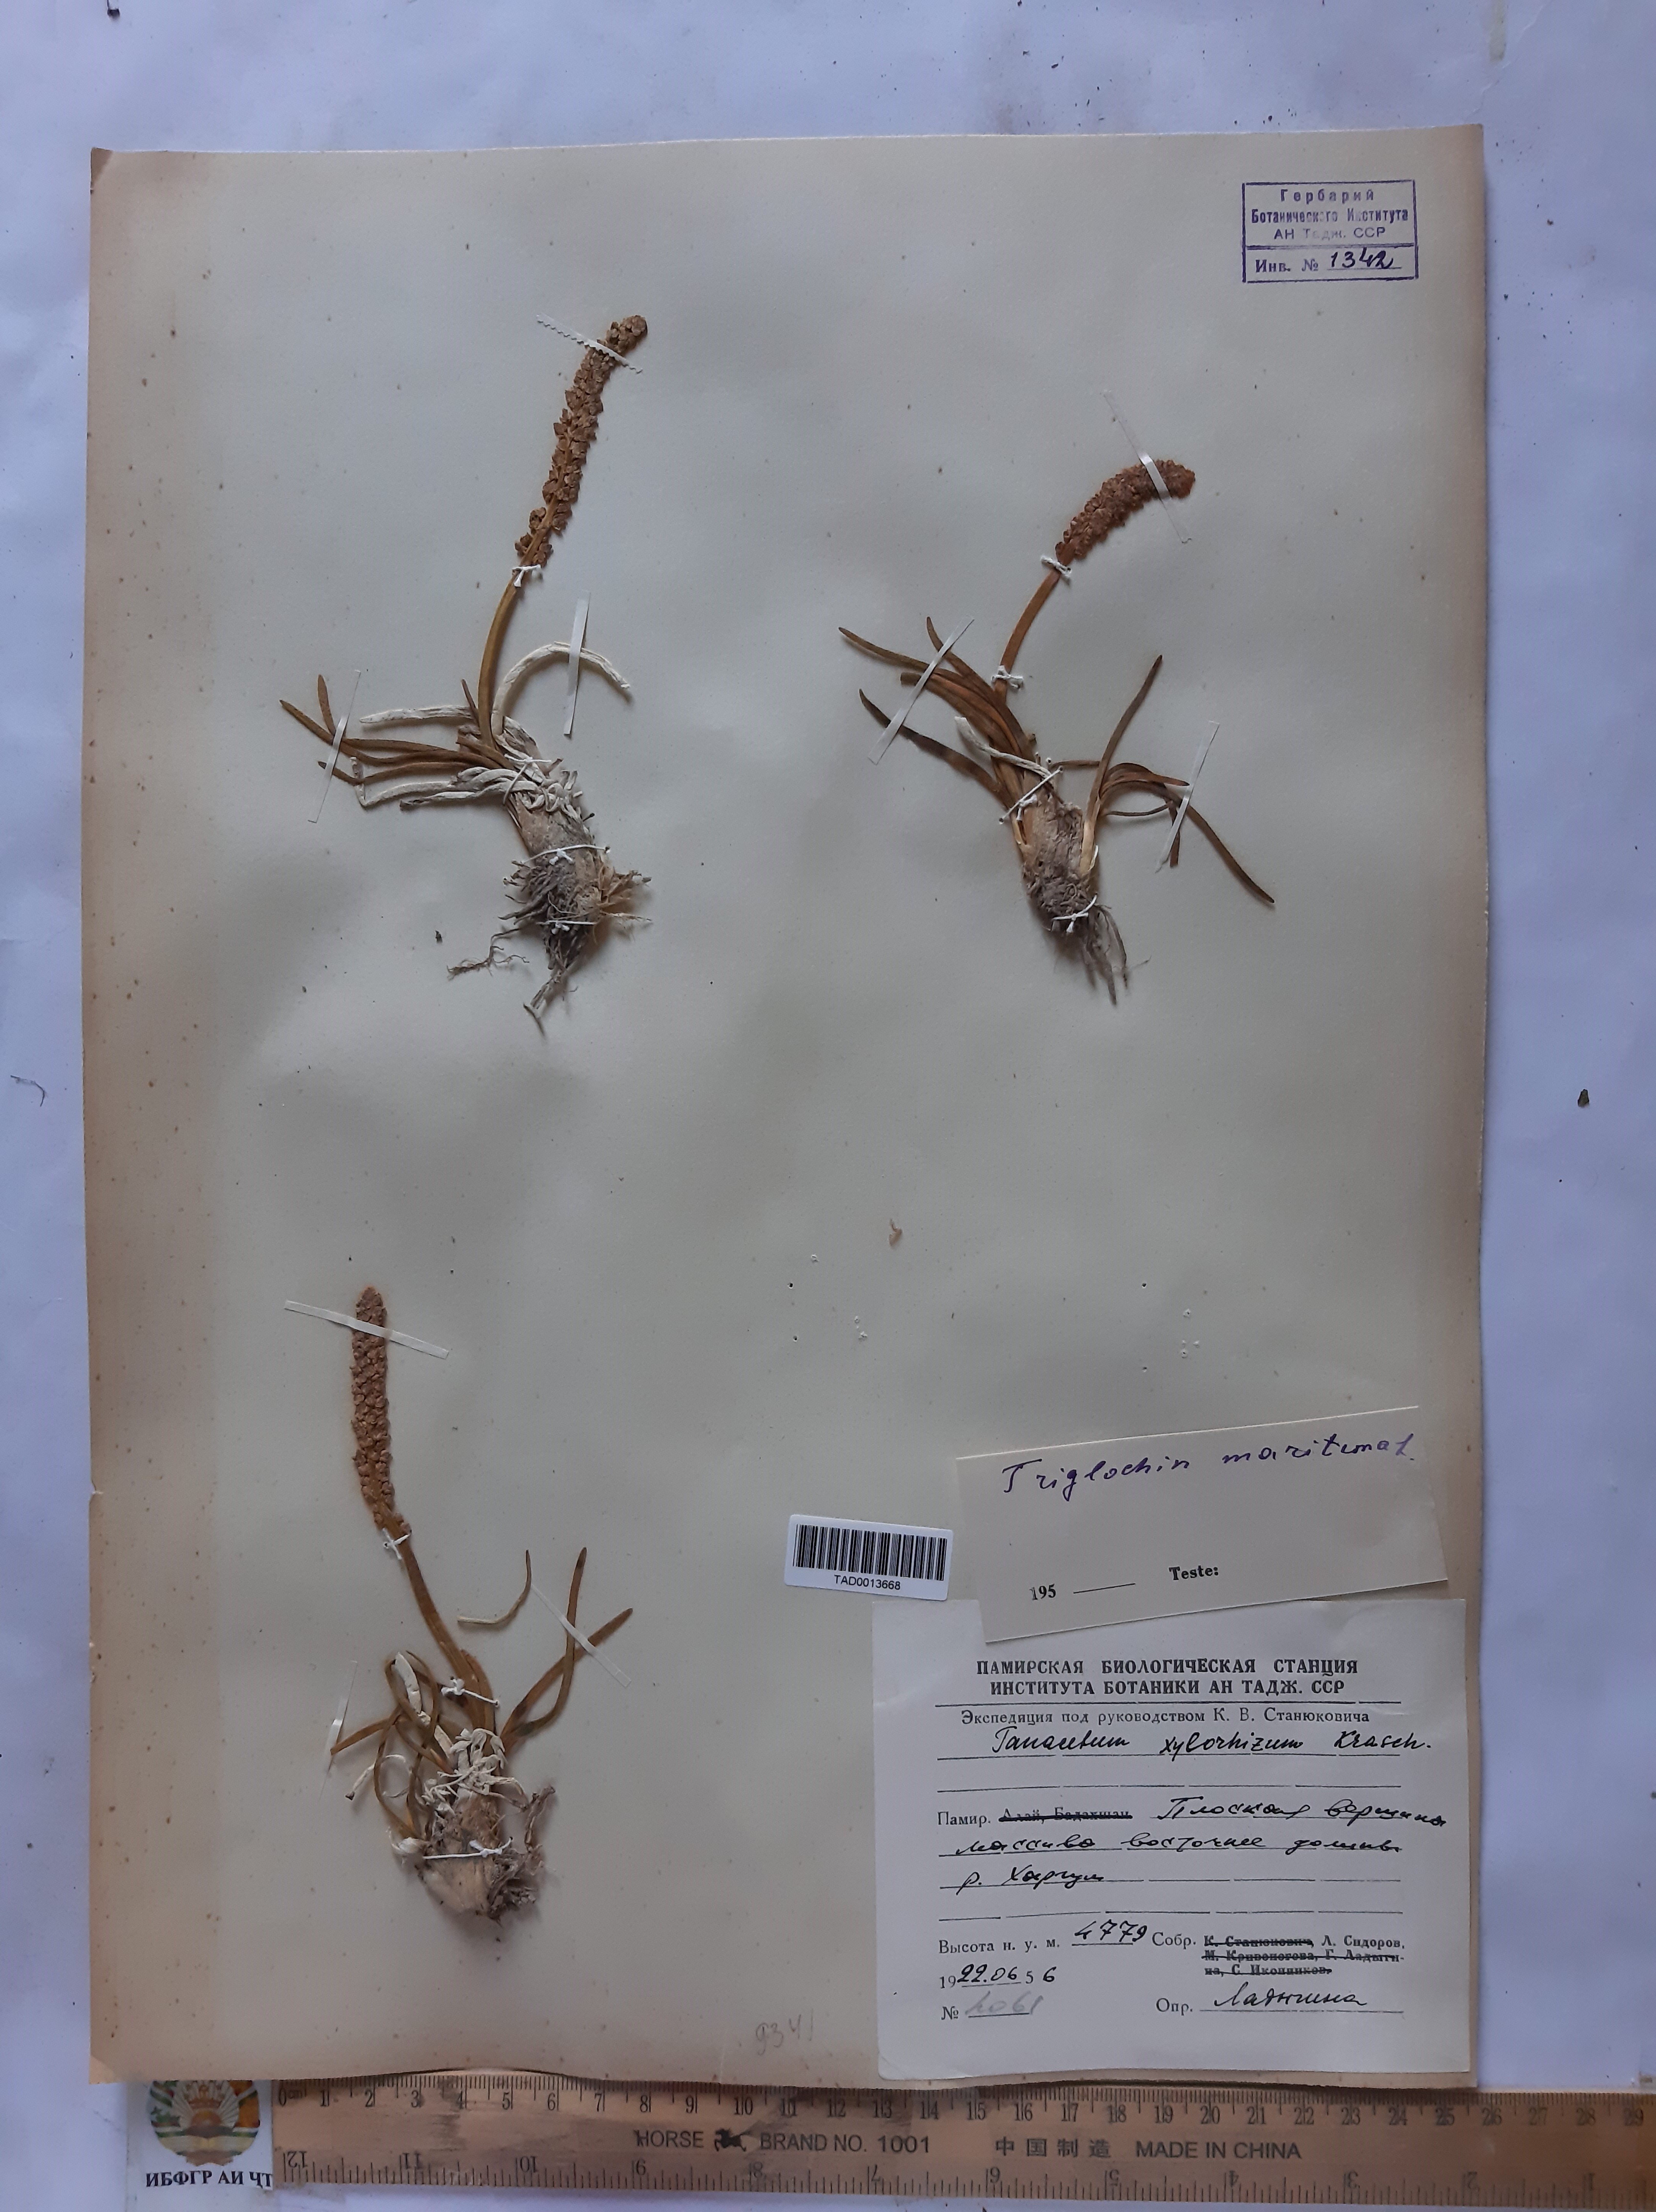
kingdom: Plantae
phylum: Tracheophyta
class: Liliopsida
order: Alismatales
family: Juncaginaceae
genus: Triglochin
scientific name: Triglochin maritima
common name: Sea arrowgrass
